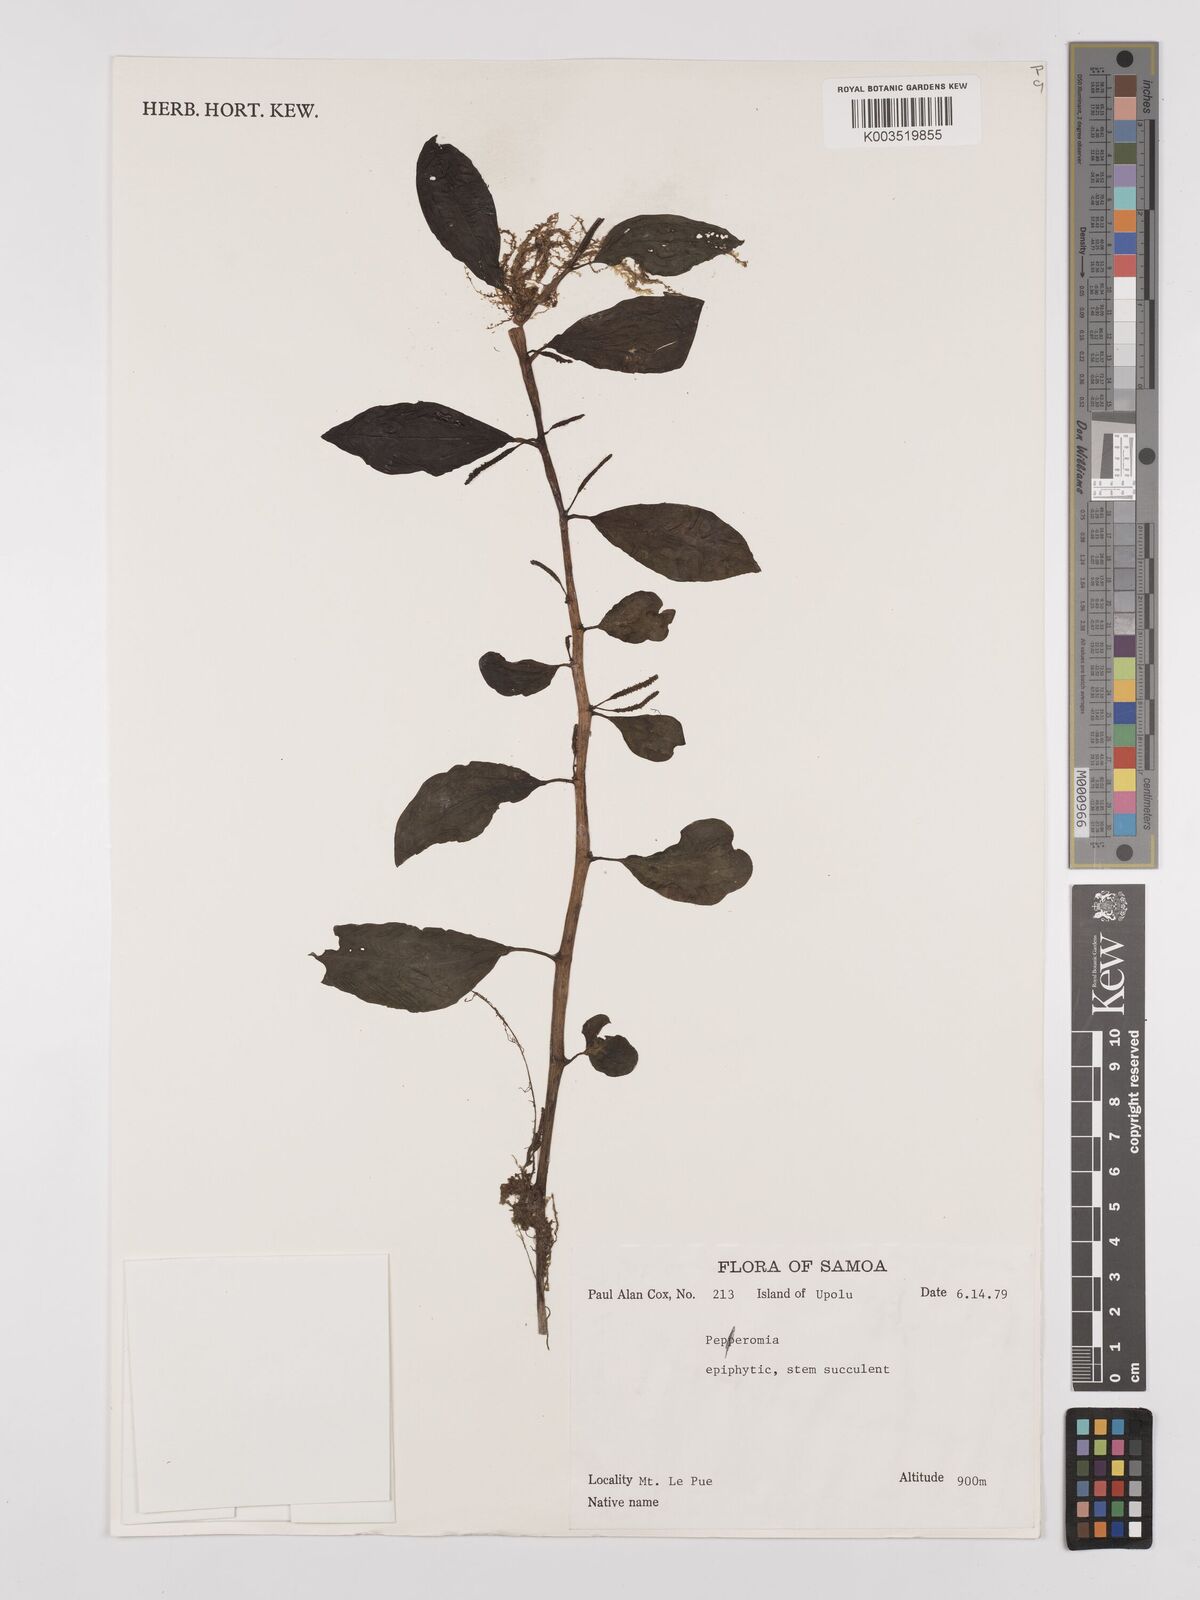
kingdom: Plantae
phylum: Tracheophyta
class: Magnoliopsida
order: Piperales
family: Piperaceae
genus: Peperomia
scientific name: Peperomia
